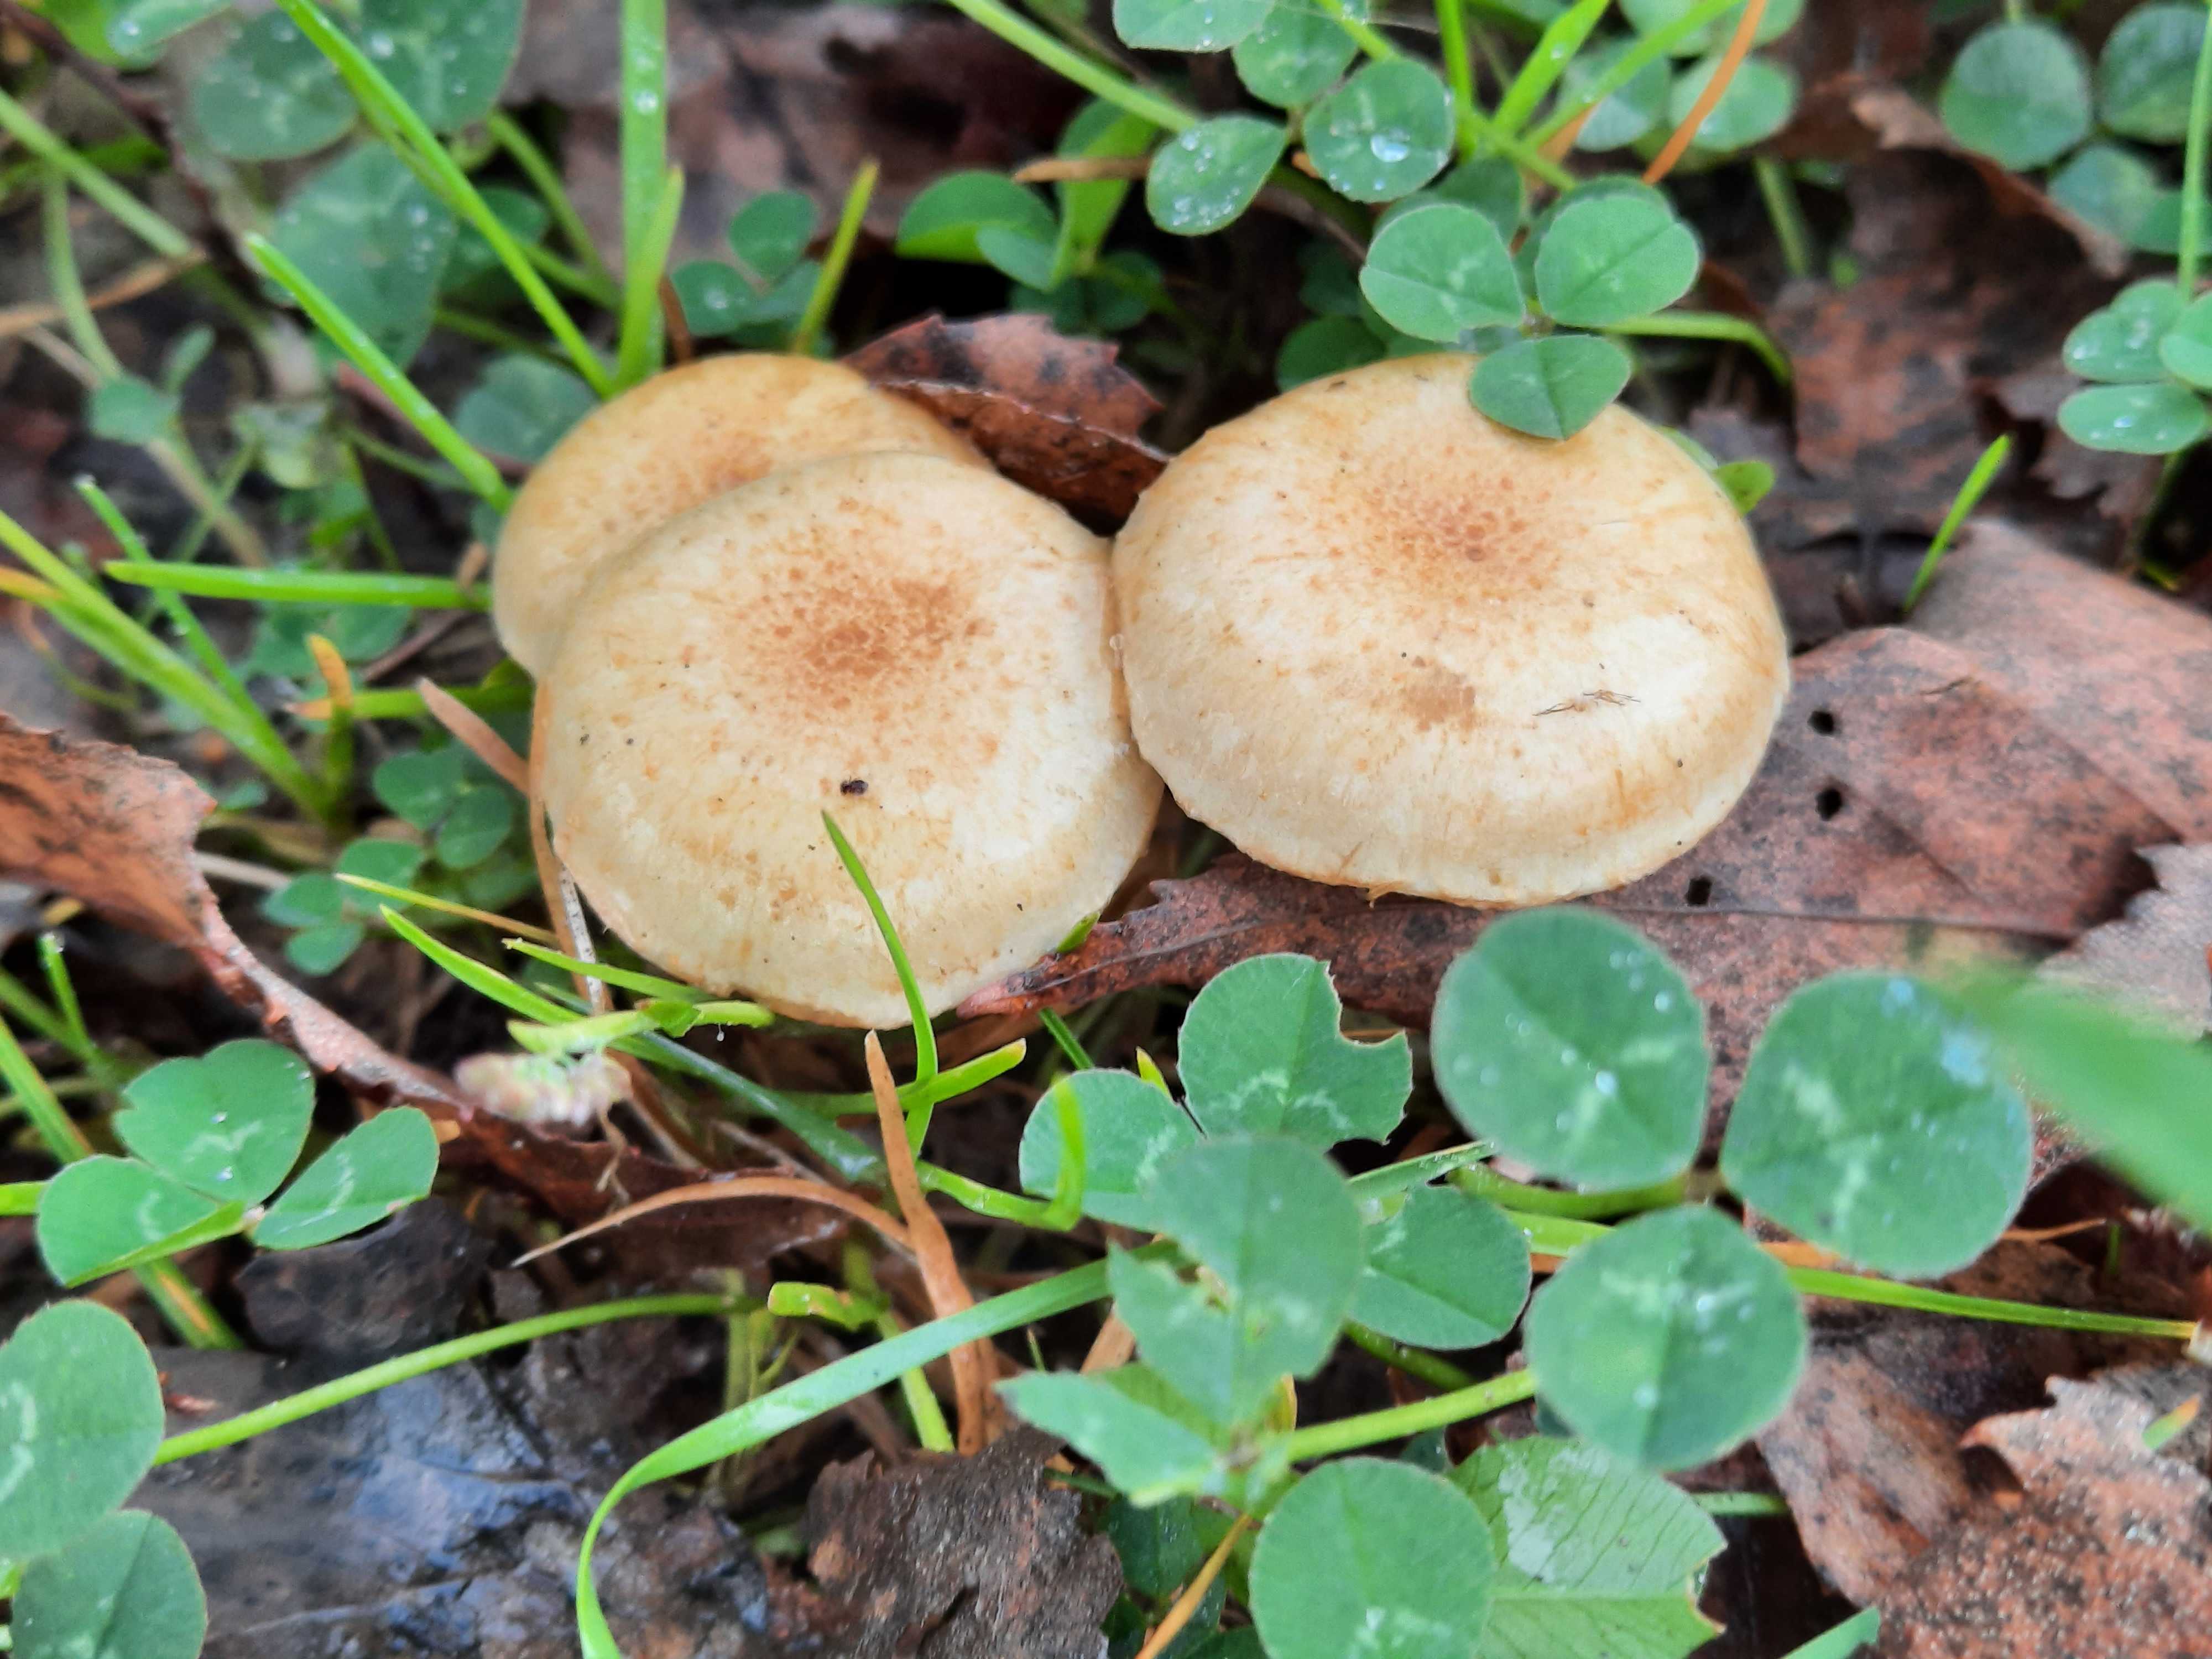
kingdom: Fungi
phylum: Basidiomycota
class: Agaricomycetes
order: Agaricales
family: Strophariaceae
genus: Pholiota
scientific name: Pholiota gummosa
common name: grøngul skælhat
